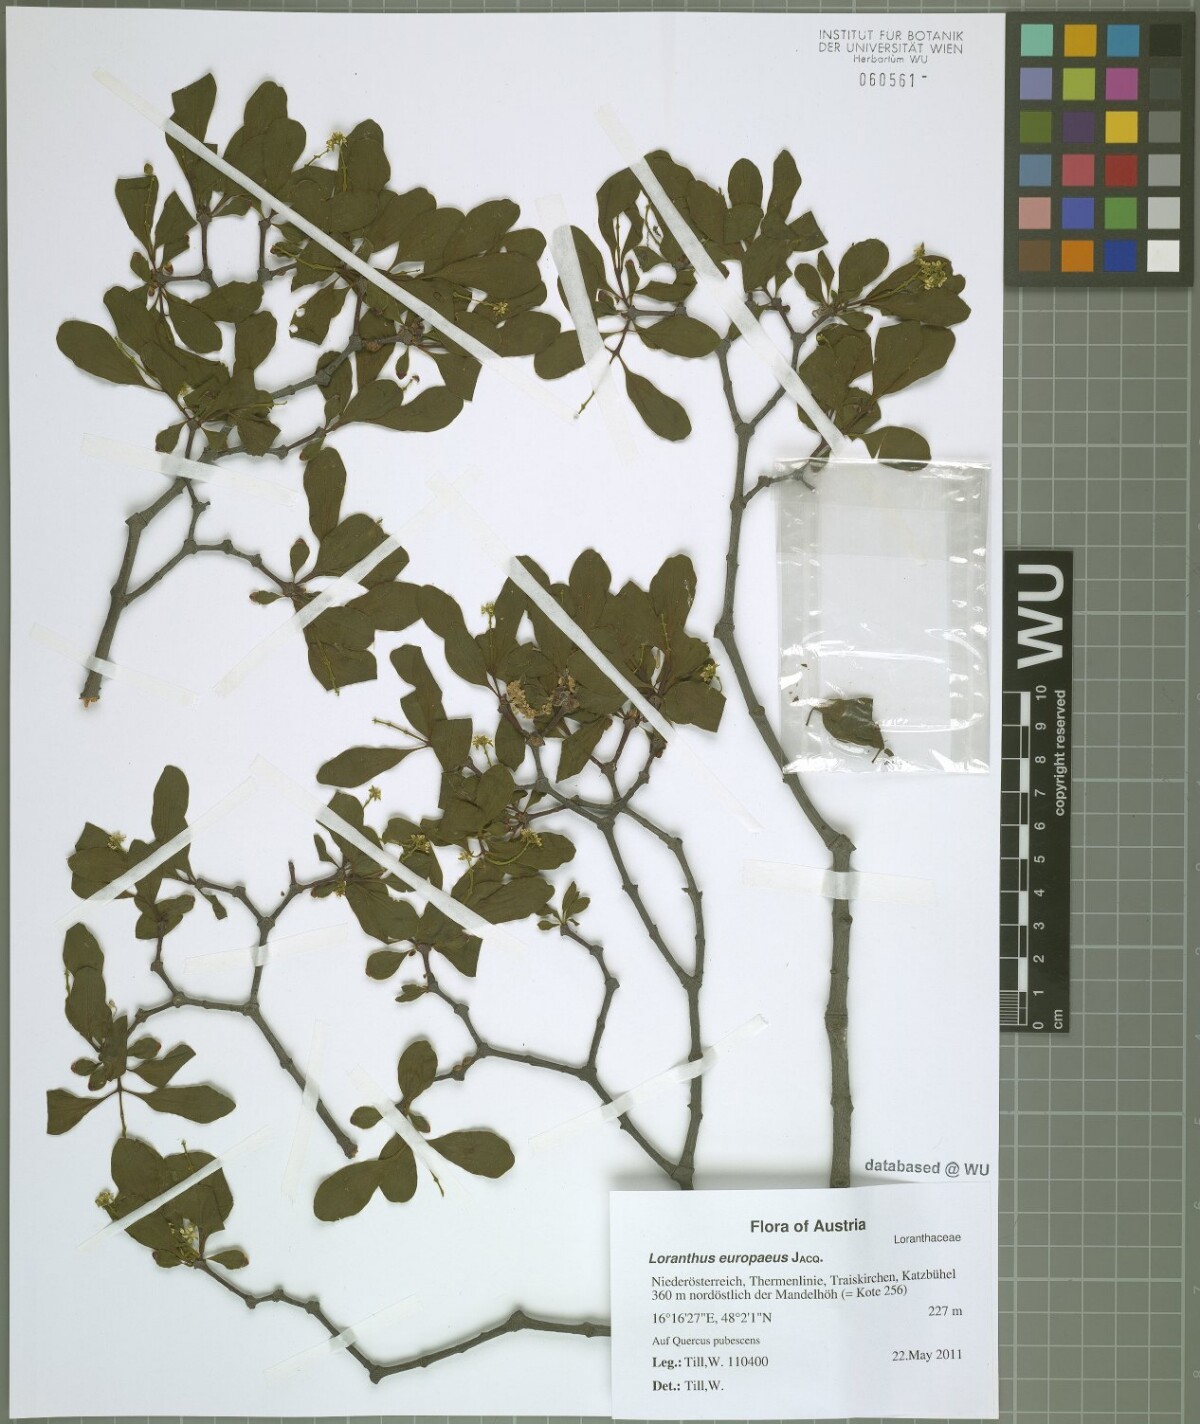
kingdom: Plantae
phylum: Tracheophyta
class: Magnoliopsida
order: Santalales
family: Loranthaceae
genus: Loranthus
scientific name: Loranthus europaeus
